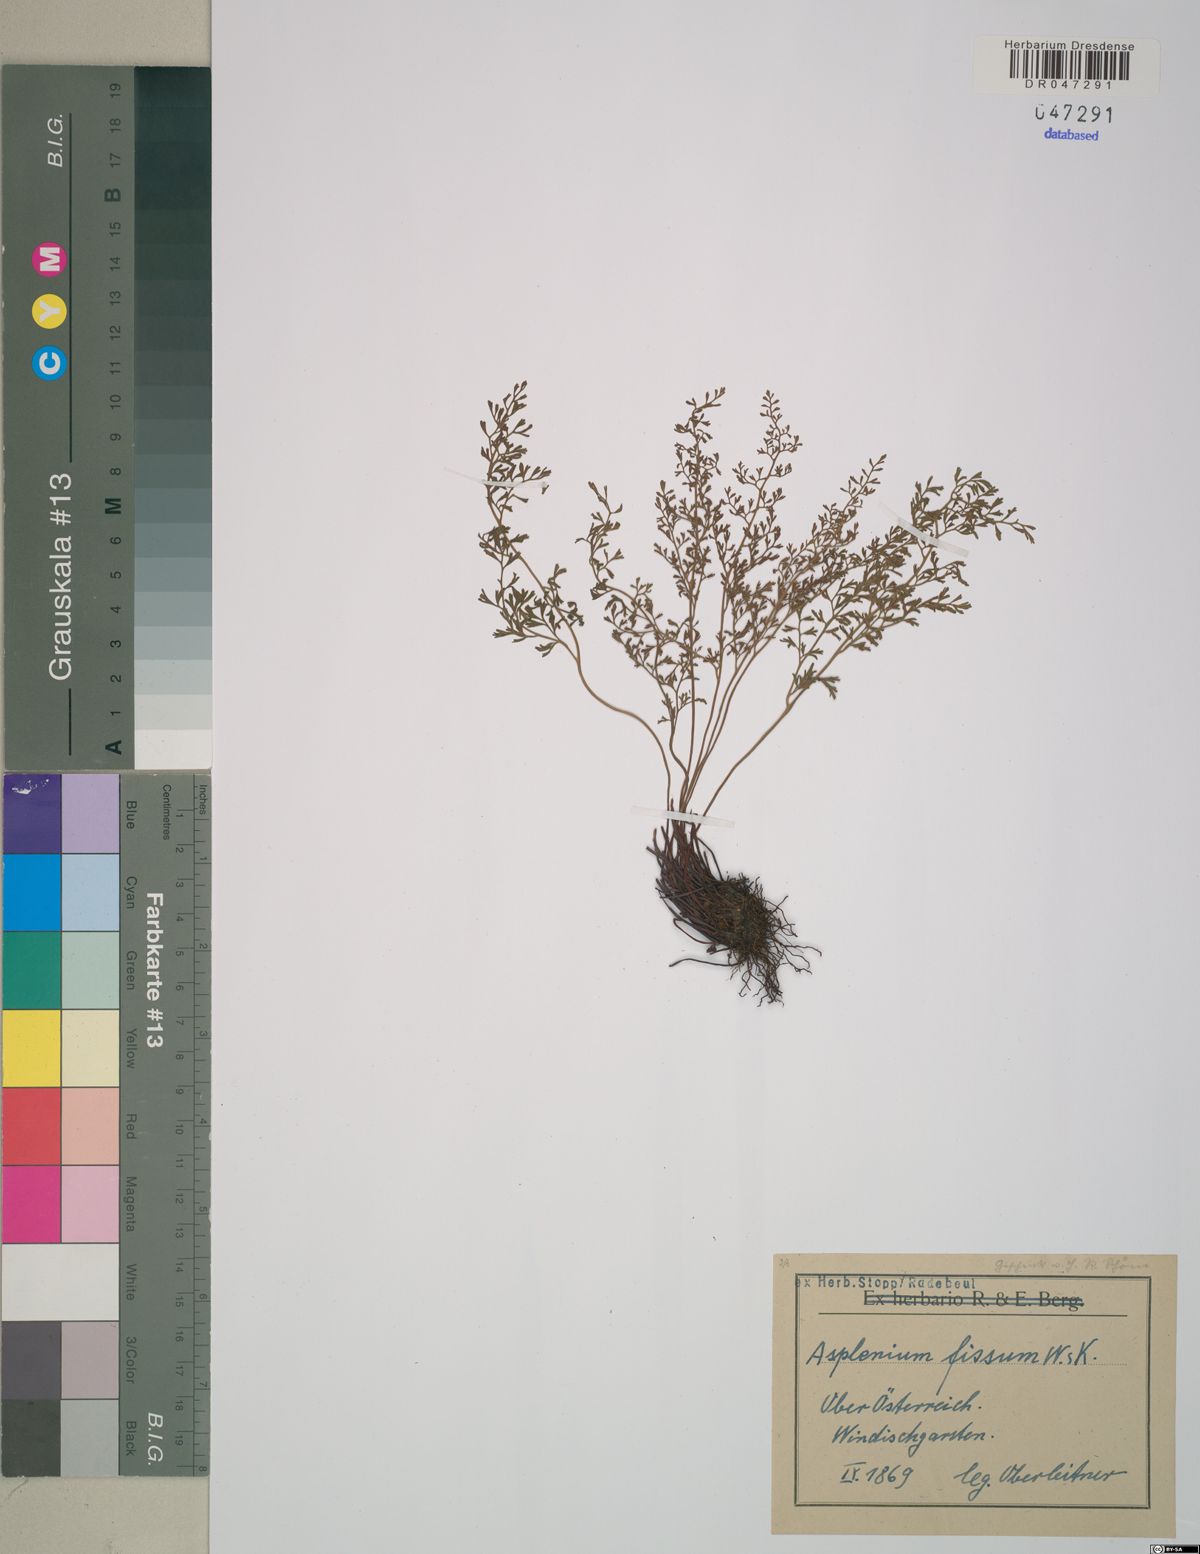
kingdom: Plantae
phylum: Tracheophyta
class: Polypodiopsida
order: Polypodiales
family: Aspleniaceae
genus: Asplenium
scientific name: Asplenium fissum
